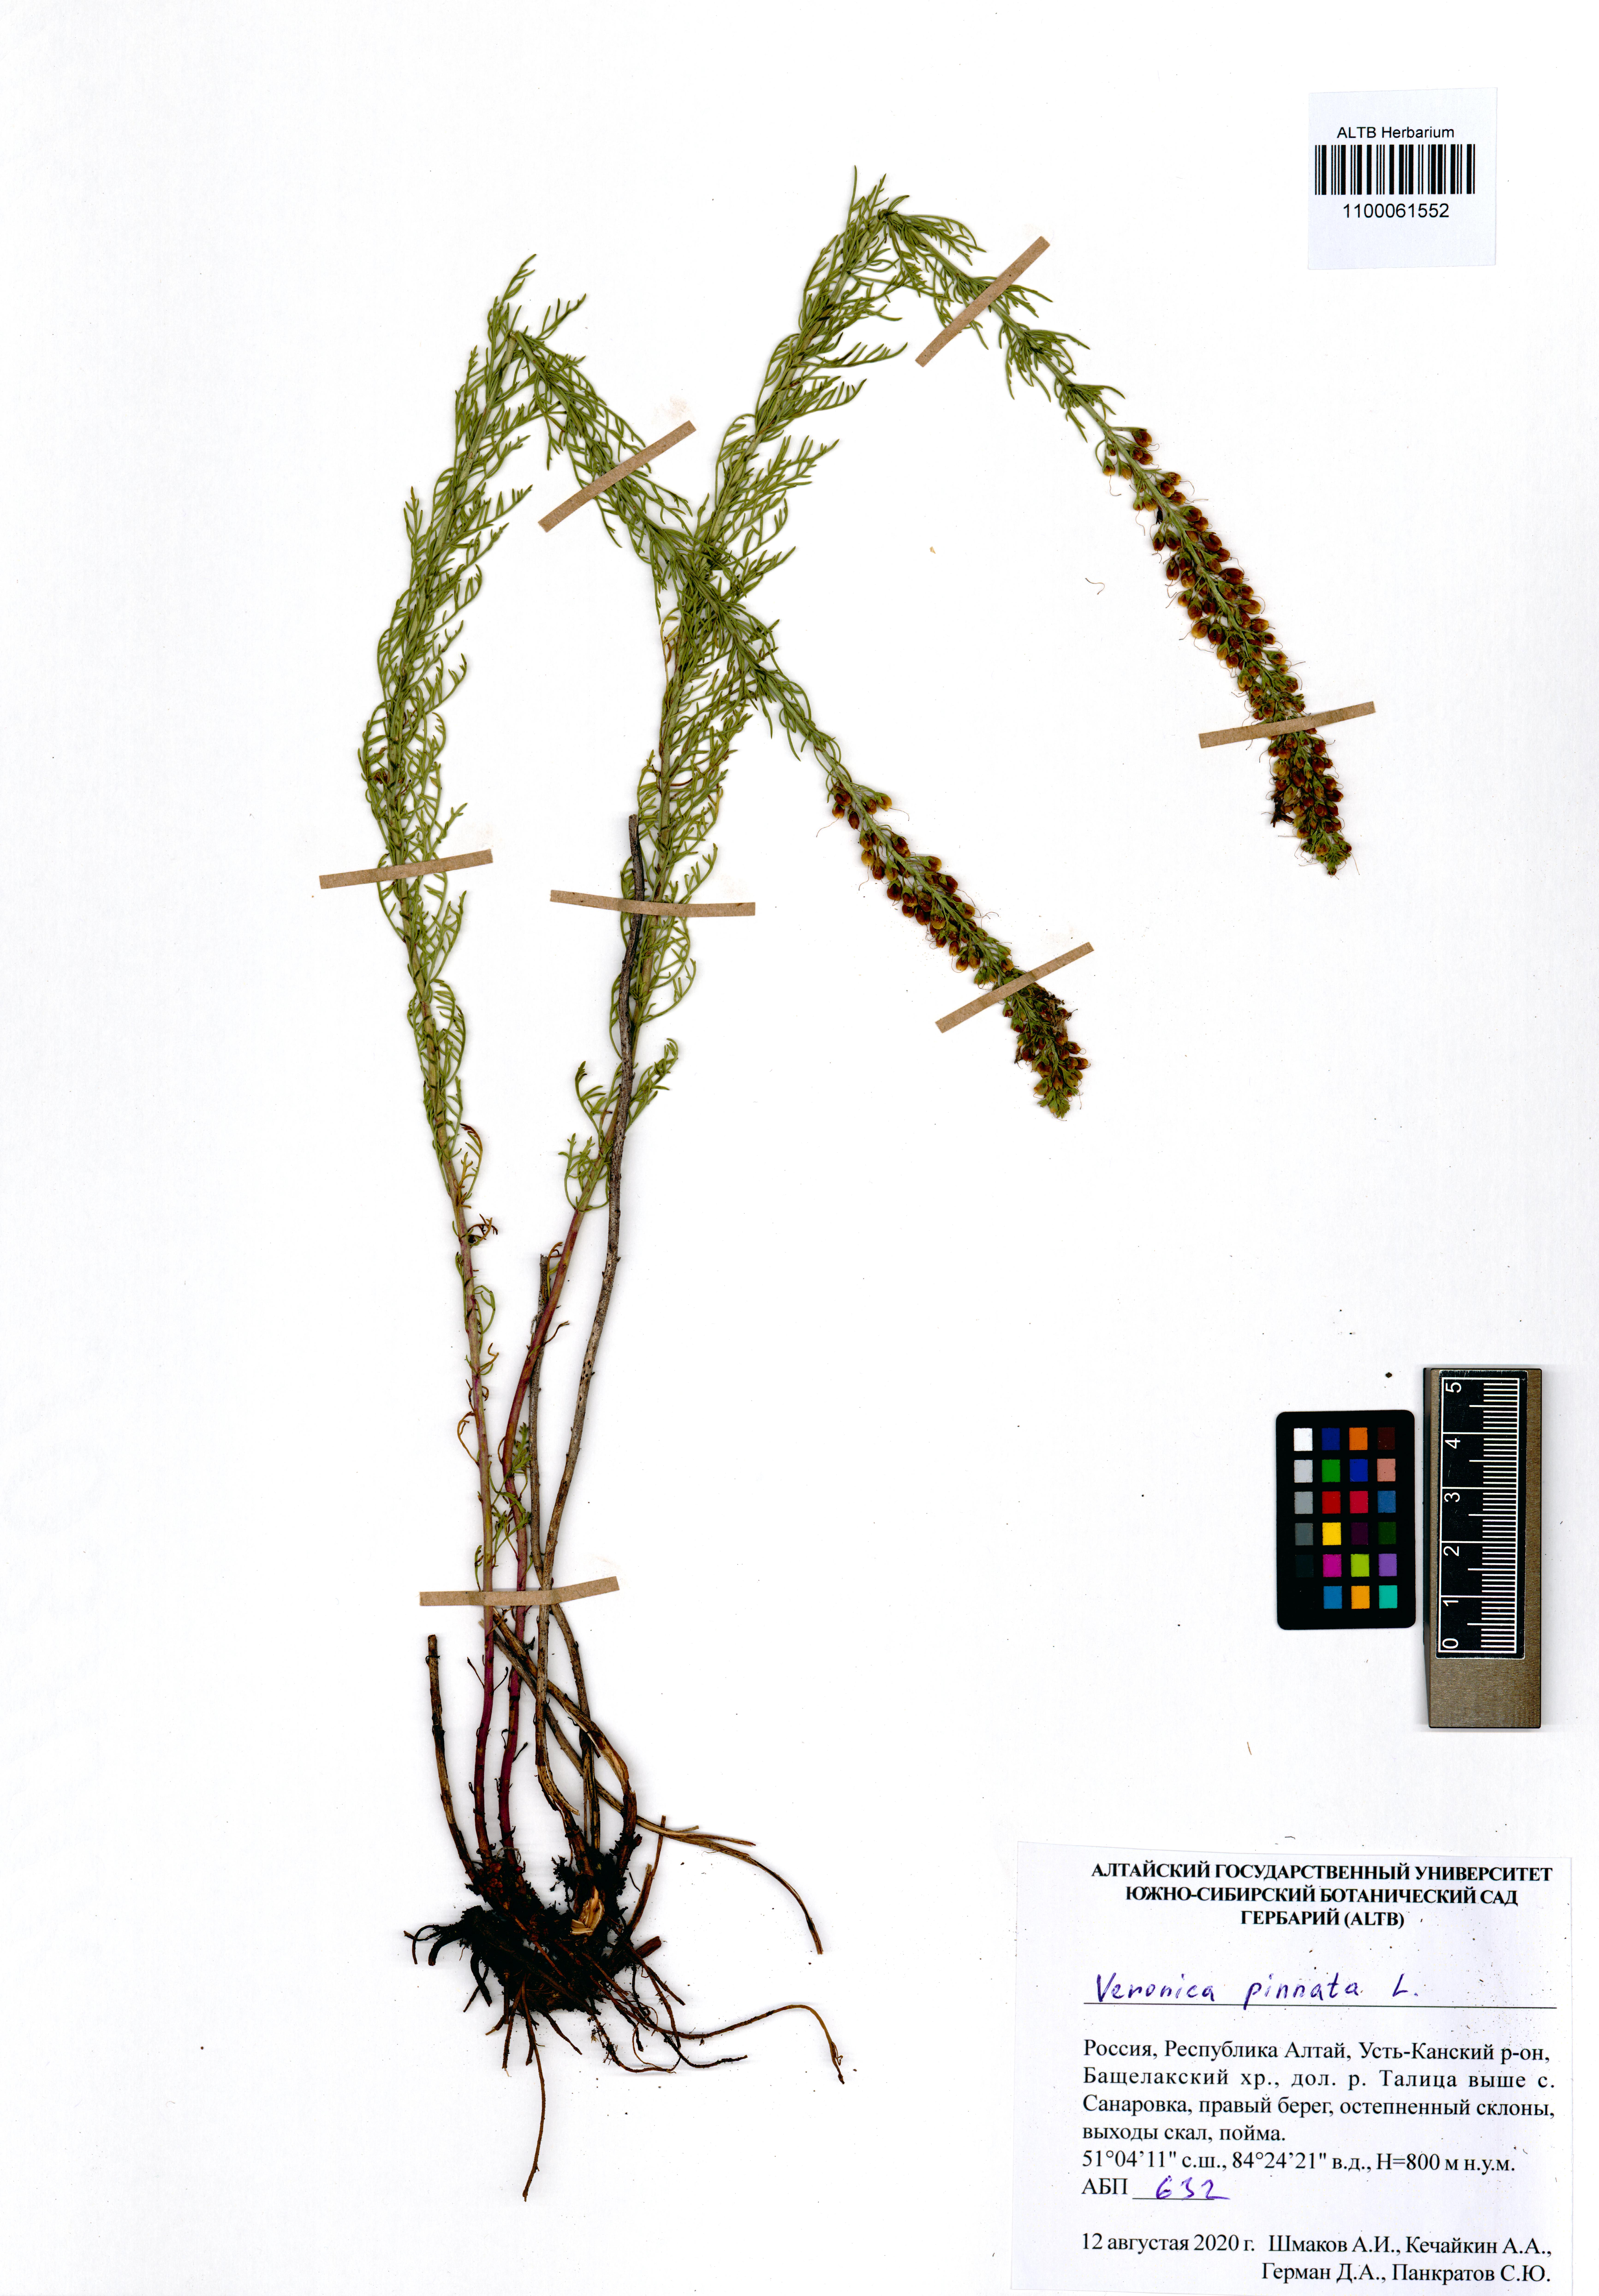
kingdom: Plantae
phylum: Tracheophyta
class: Magnoliopsida
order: Lamiales
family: Plantaginaceae
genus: Veronica
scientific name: Veronica pinnata
